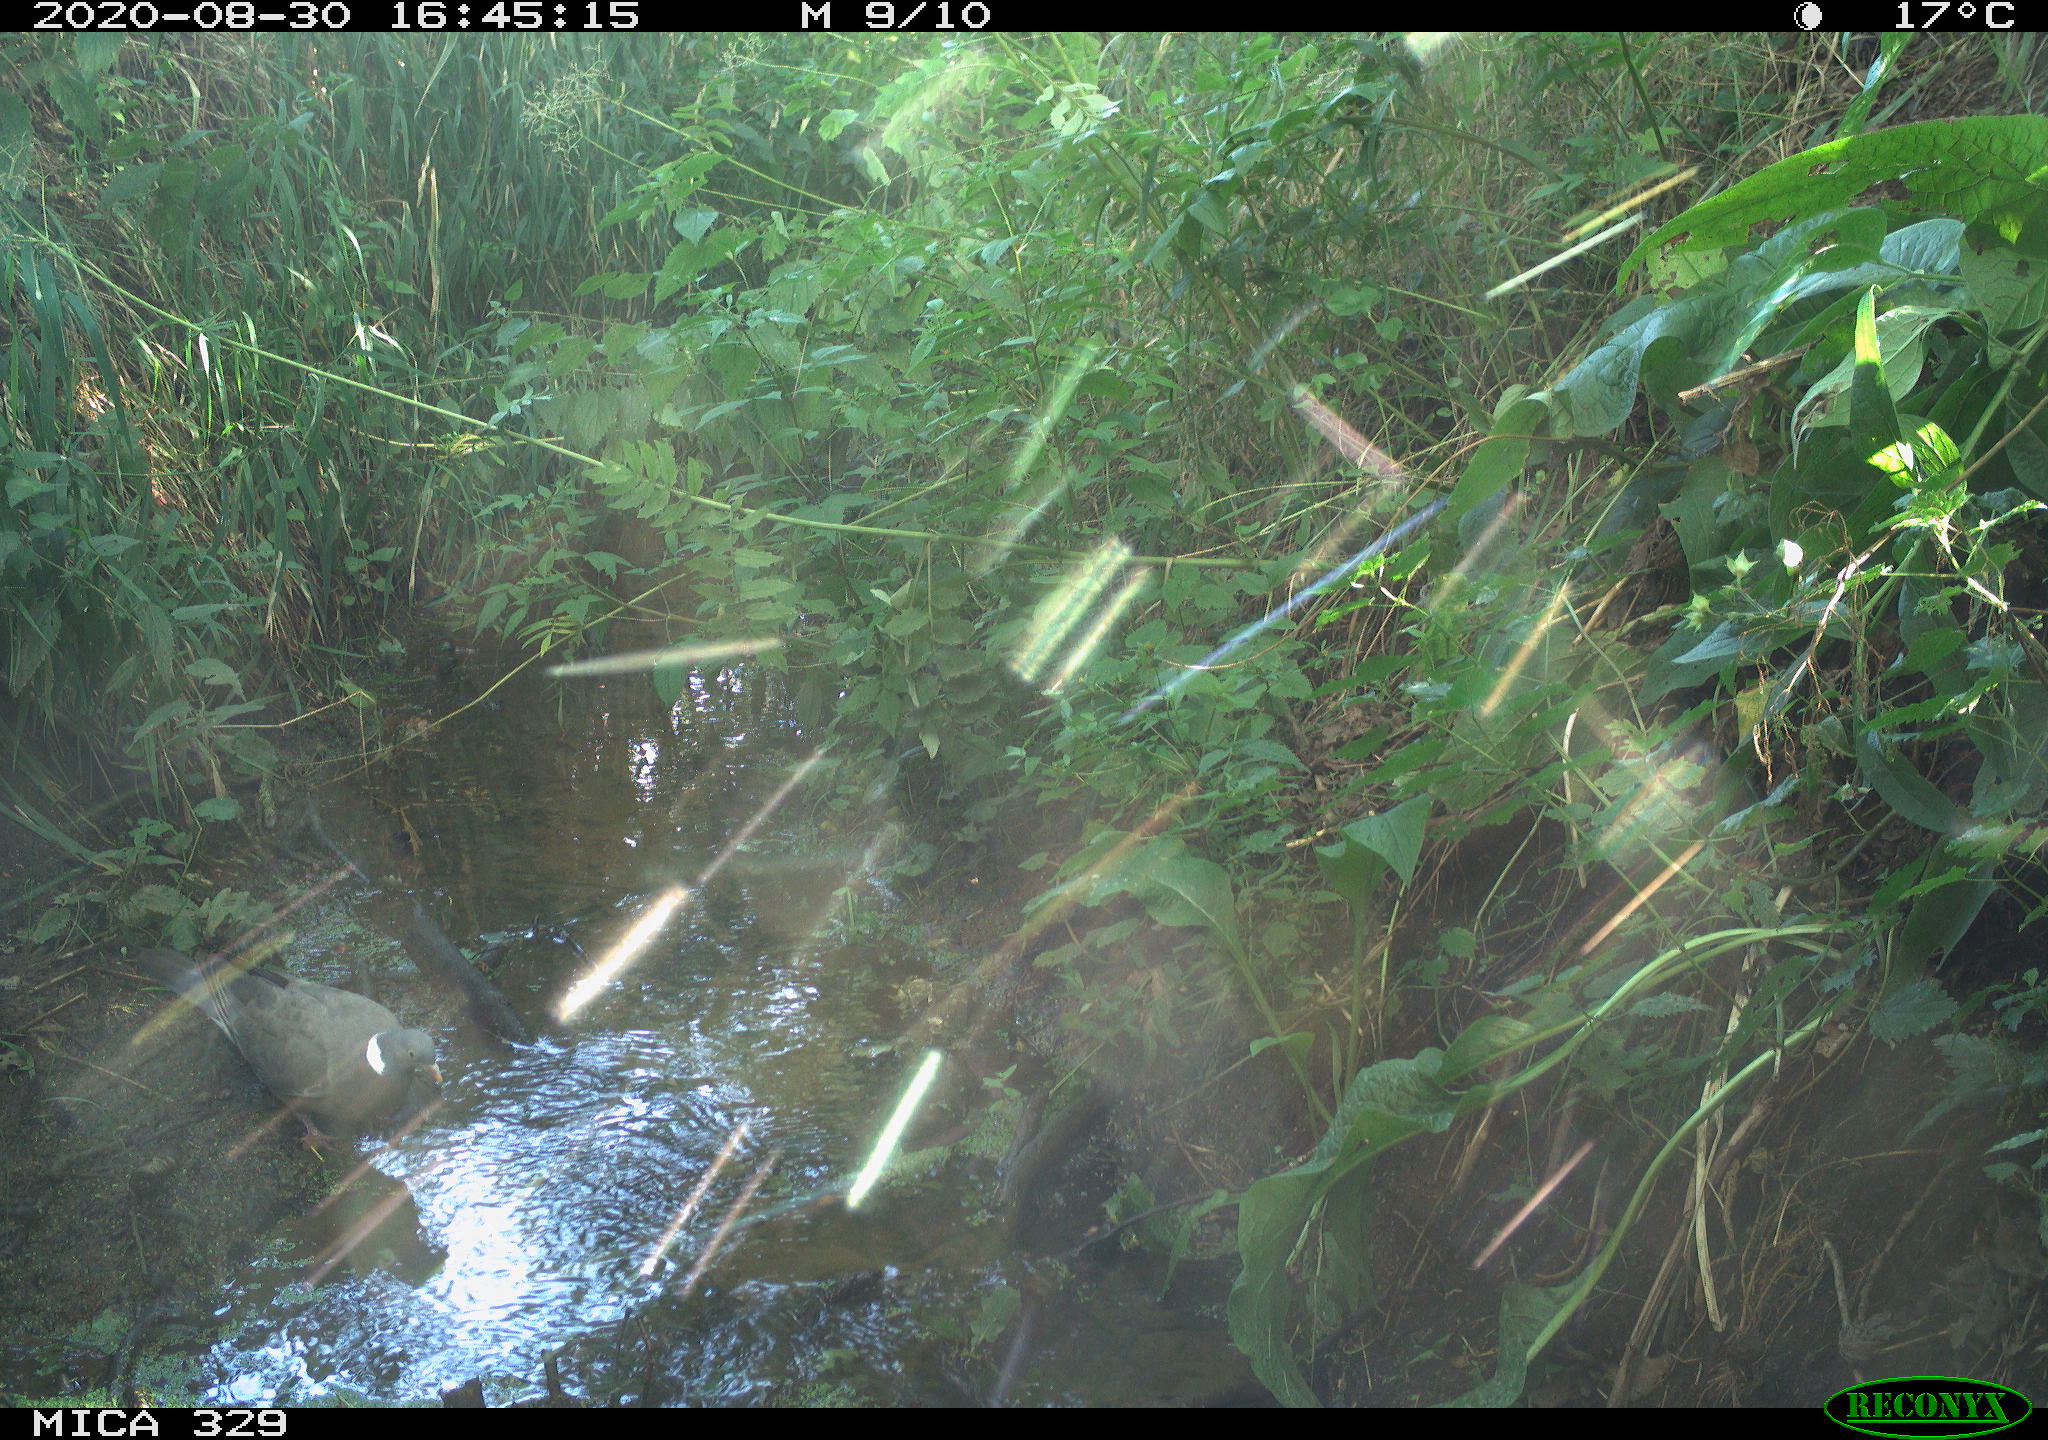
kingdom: Animalia
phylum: Chordata
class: Aves
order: Columbiformes
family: Columbidae
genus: Columba
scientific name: Columba palumbus
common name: Common wood pigeon
